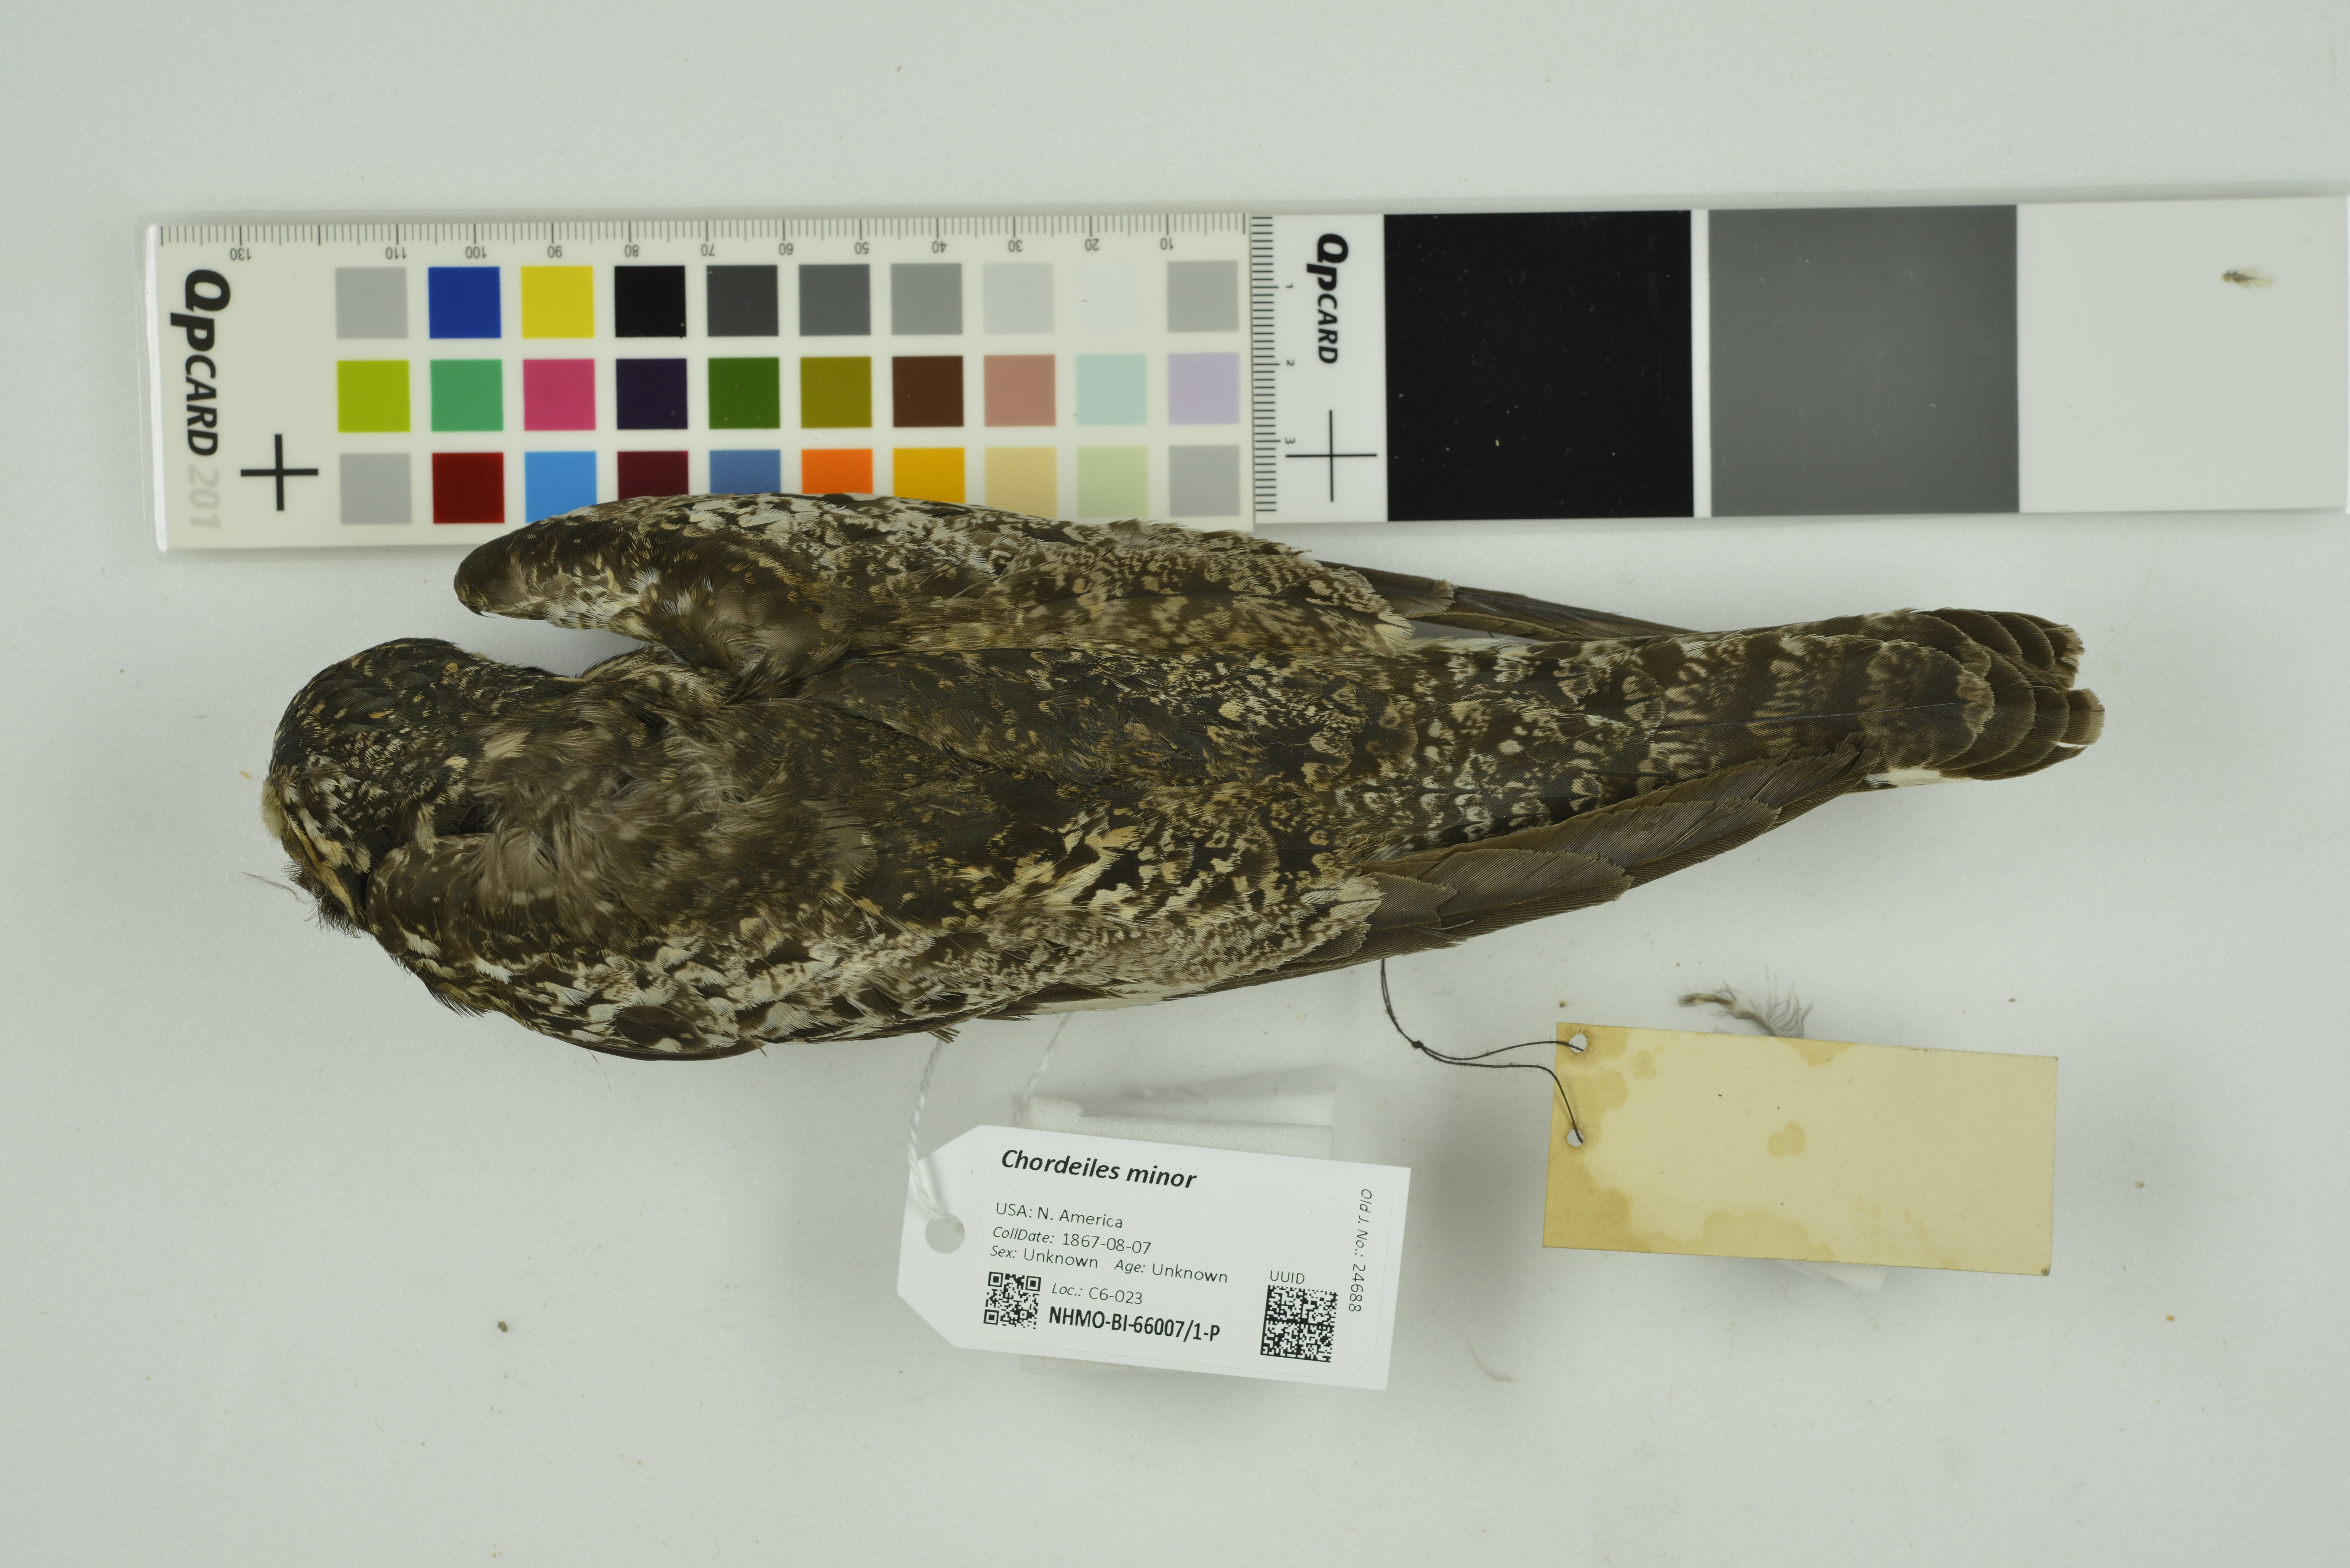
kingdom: Animalia
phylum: Chordata
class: Aves
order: Caprimulgiformes
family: Caprimulgidae
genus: Chordeiles
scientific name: Chordeiles minor
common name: Common nighthawk
